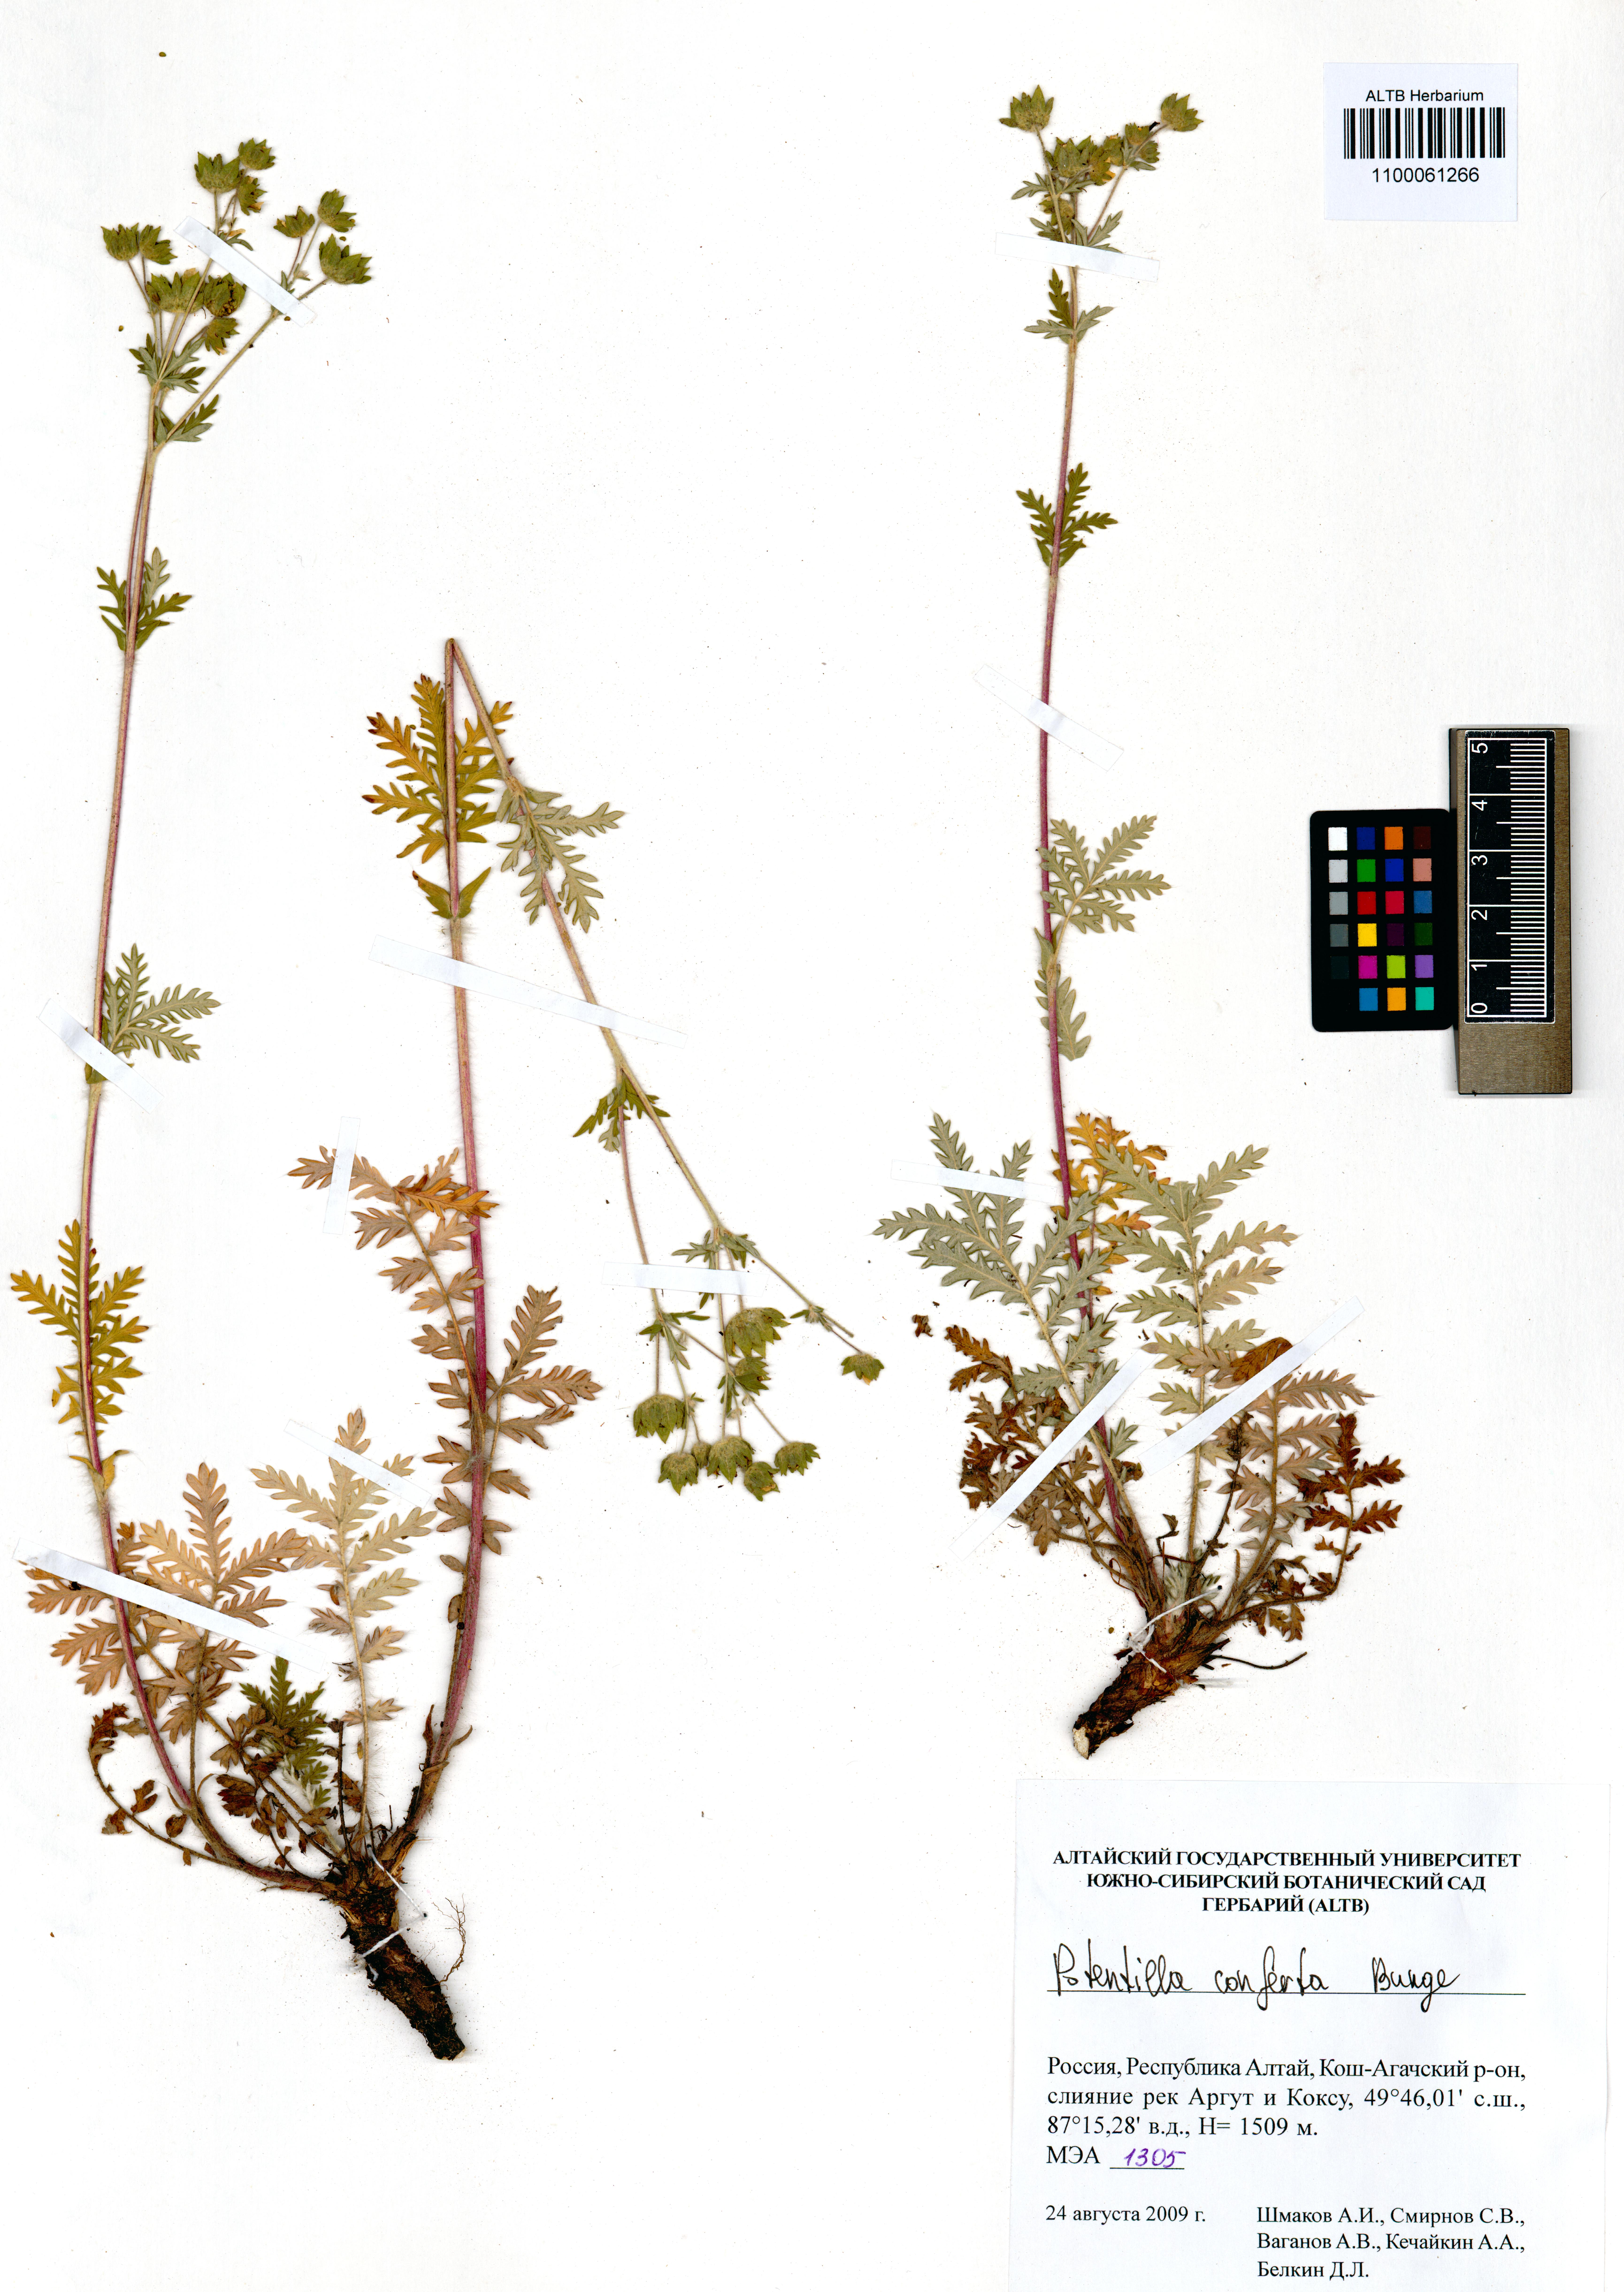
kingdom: Plantae
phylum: Tracheophyta
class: Magnoliopsida
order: Rosales
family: Rosaceae
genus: Potentilla
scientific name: Potentilla conferta
